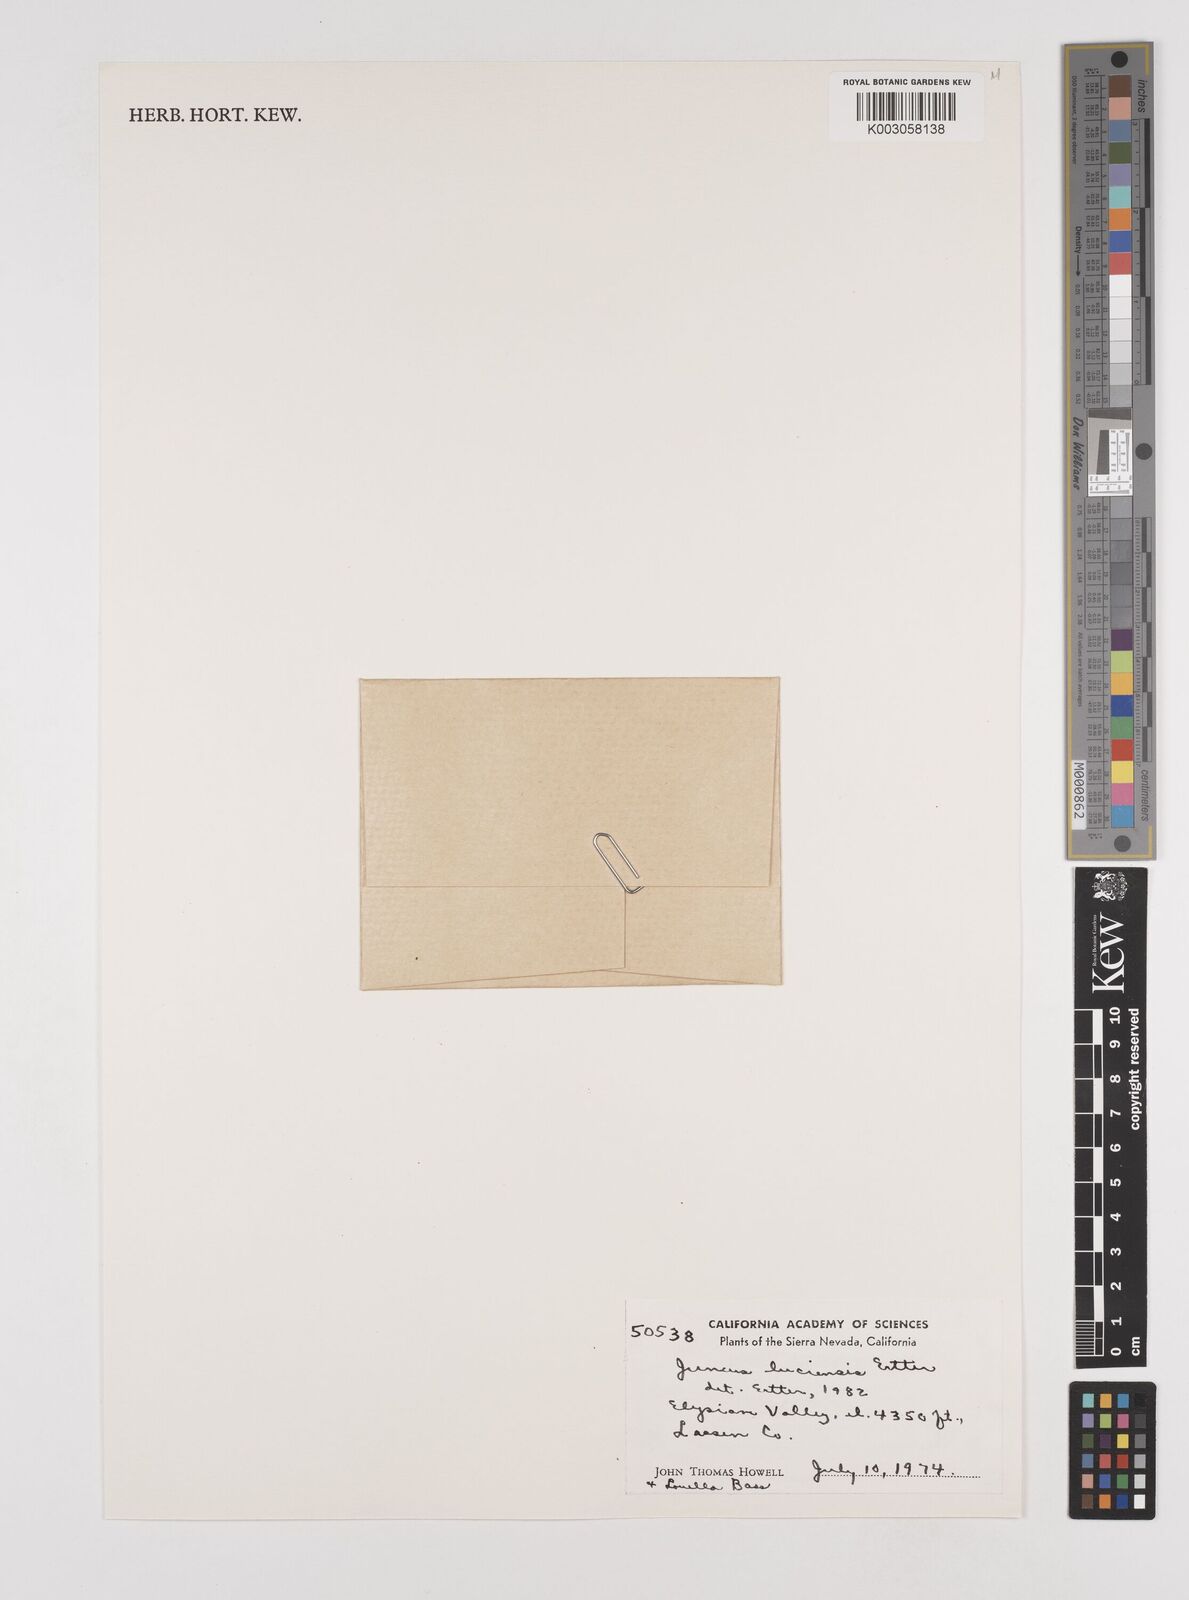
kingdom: Plantae
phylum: Tracheophyta
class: Liliopsida
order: Poales
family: Juncaceae
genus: Juncus
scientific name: Juncus luciensis
